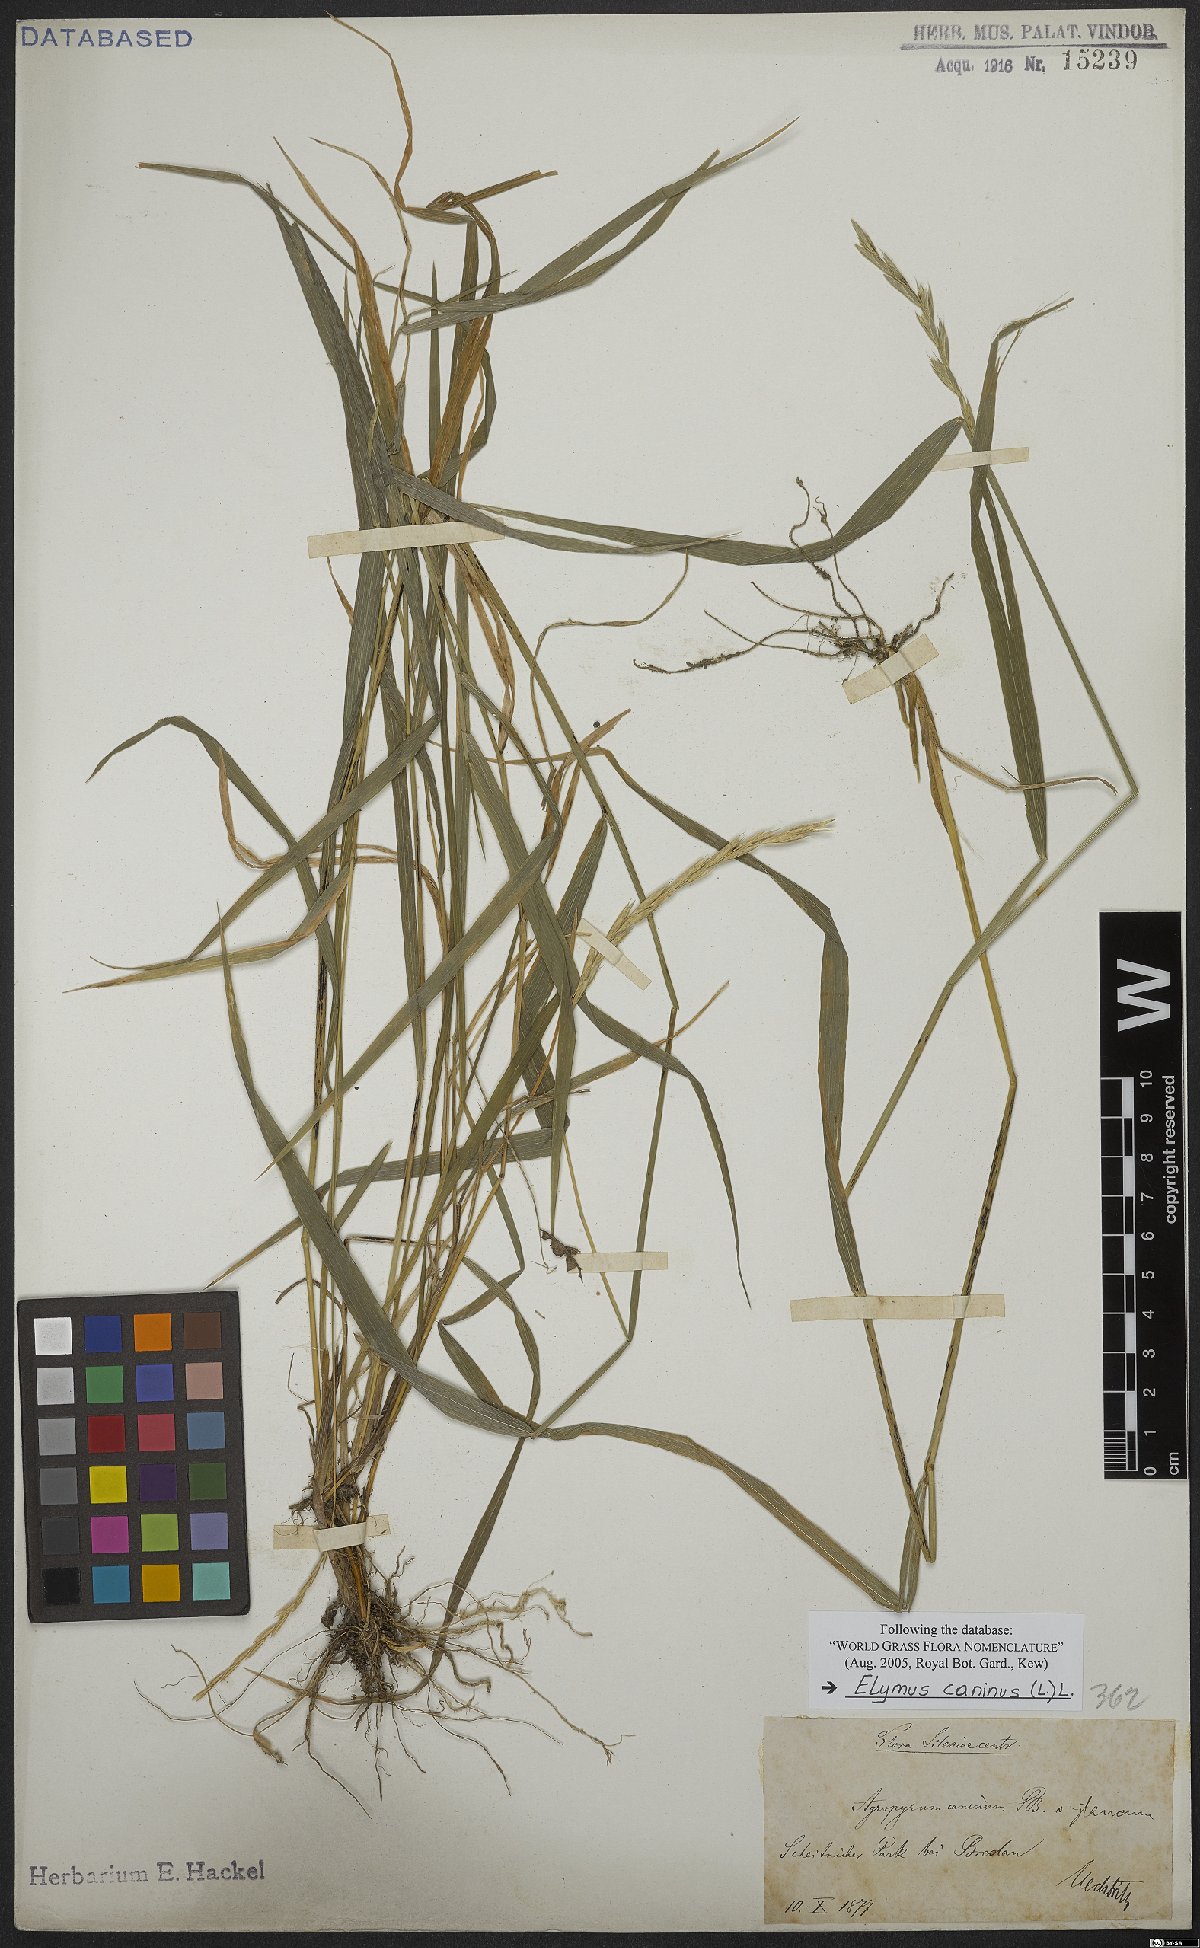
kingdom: Plantae
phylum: Tracheophyta
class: Liliopsida
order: Poales
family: Poaceae
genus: Elymus
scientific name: Elymus caninus
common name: Bearded couch
